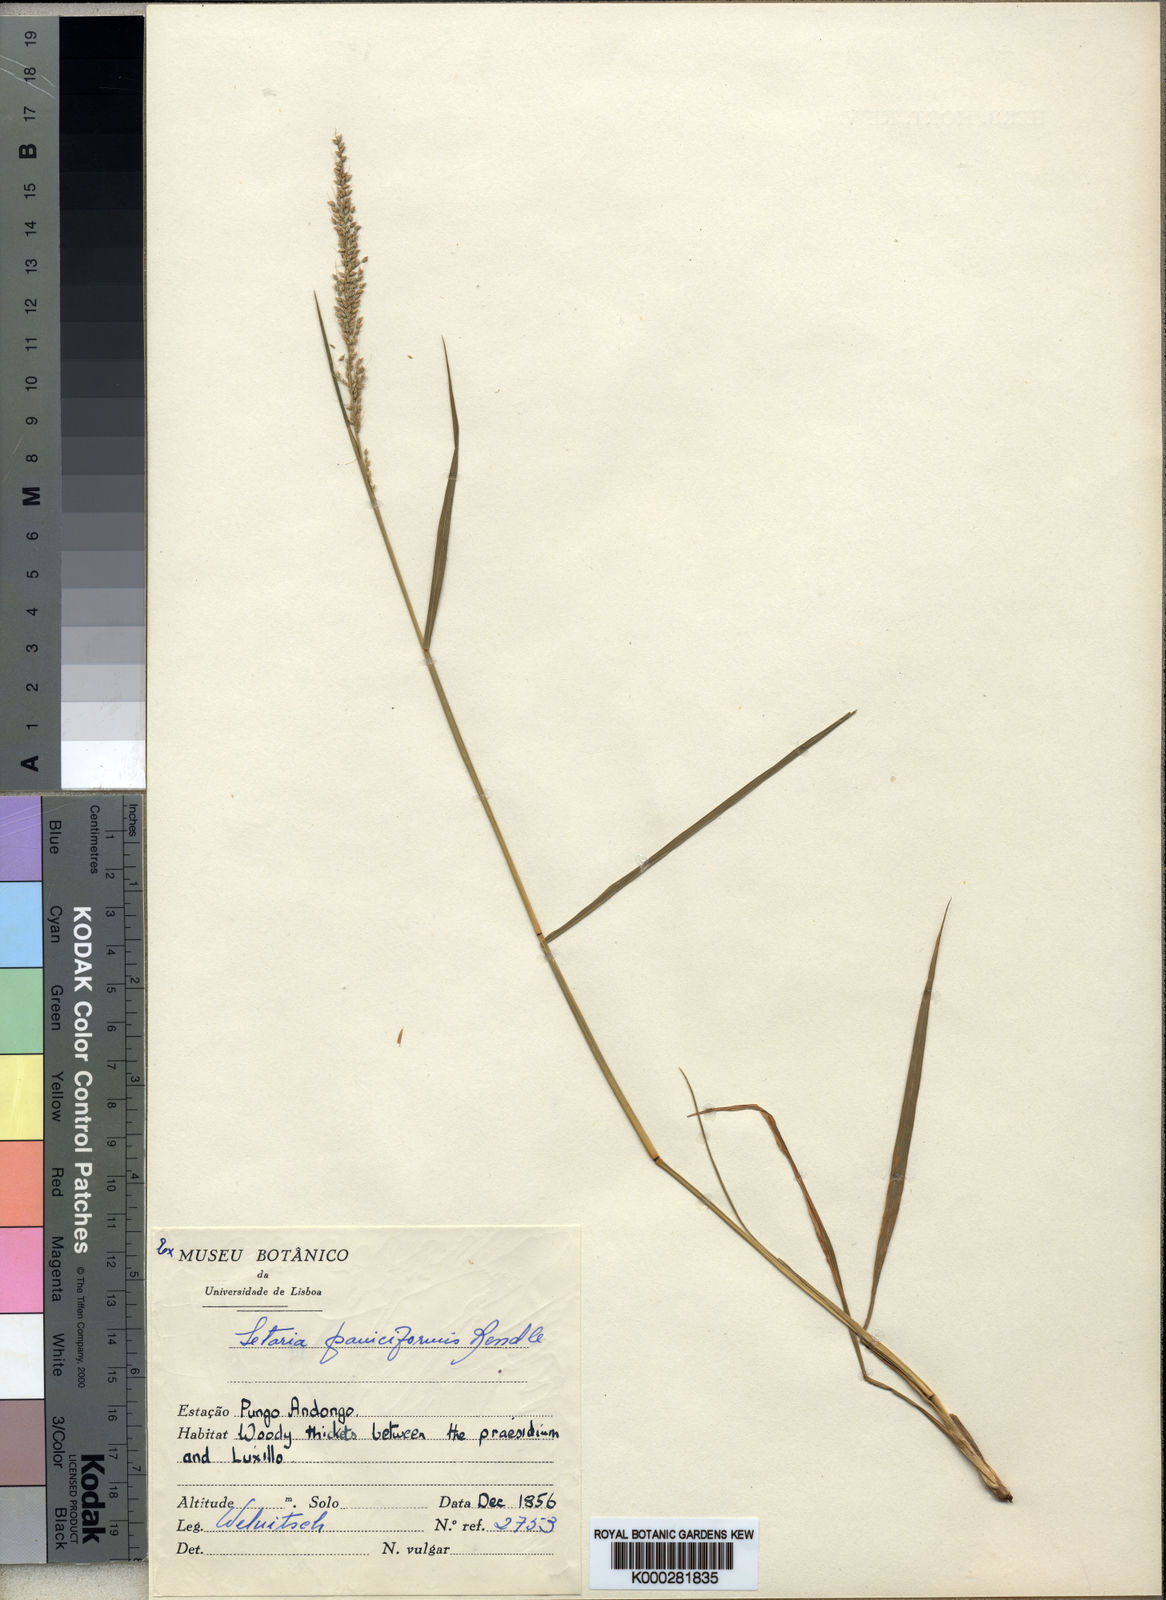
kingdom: Plantae
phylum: Tracheophyta
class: Liliopsida
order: Poales
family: Poaceae
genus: Setaria
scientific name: Setaria longiseta
